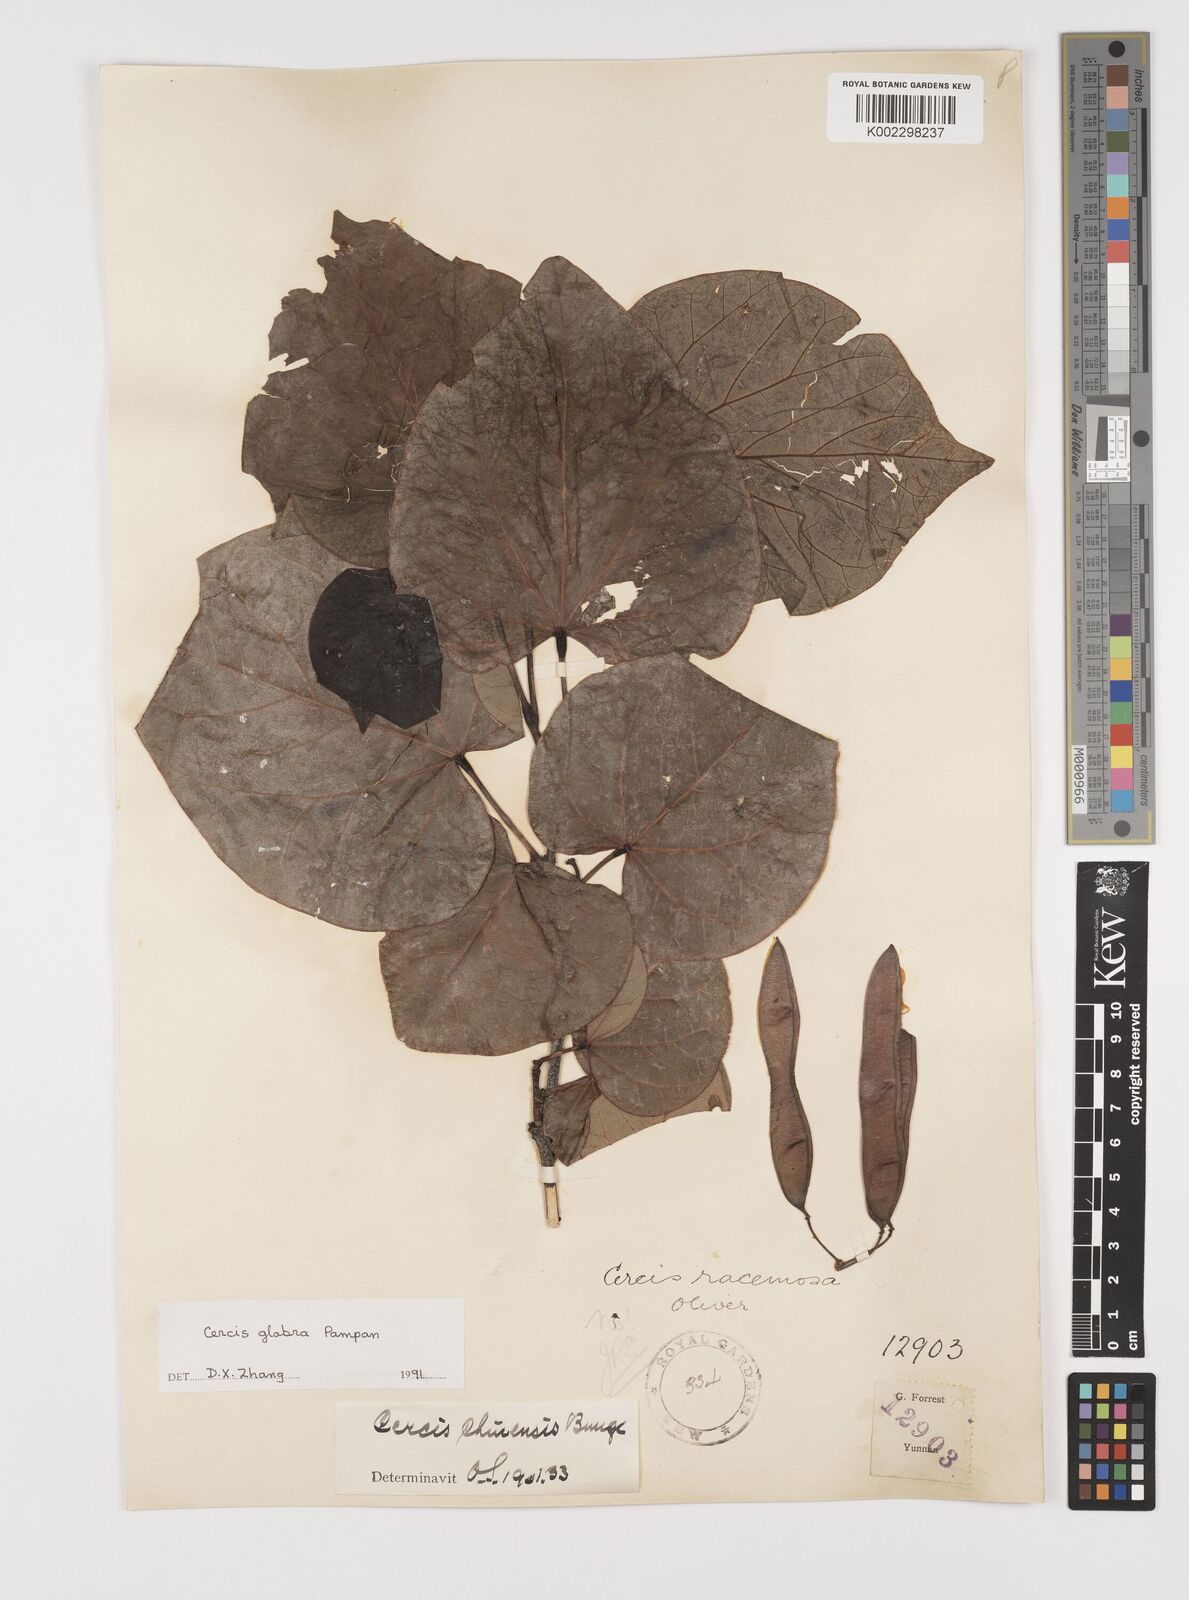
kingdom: Plantae
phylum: Tracheophyta
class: Magnoliopsida
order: Fabales
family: Fabaceae
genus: Cercis
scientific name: Cercis glabra
